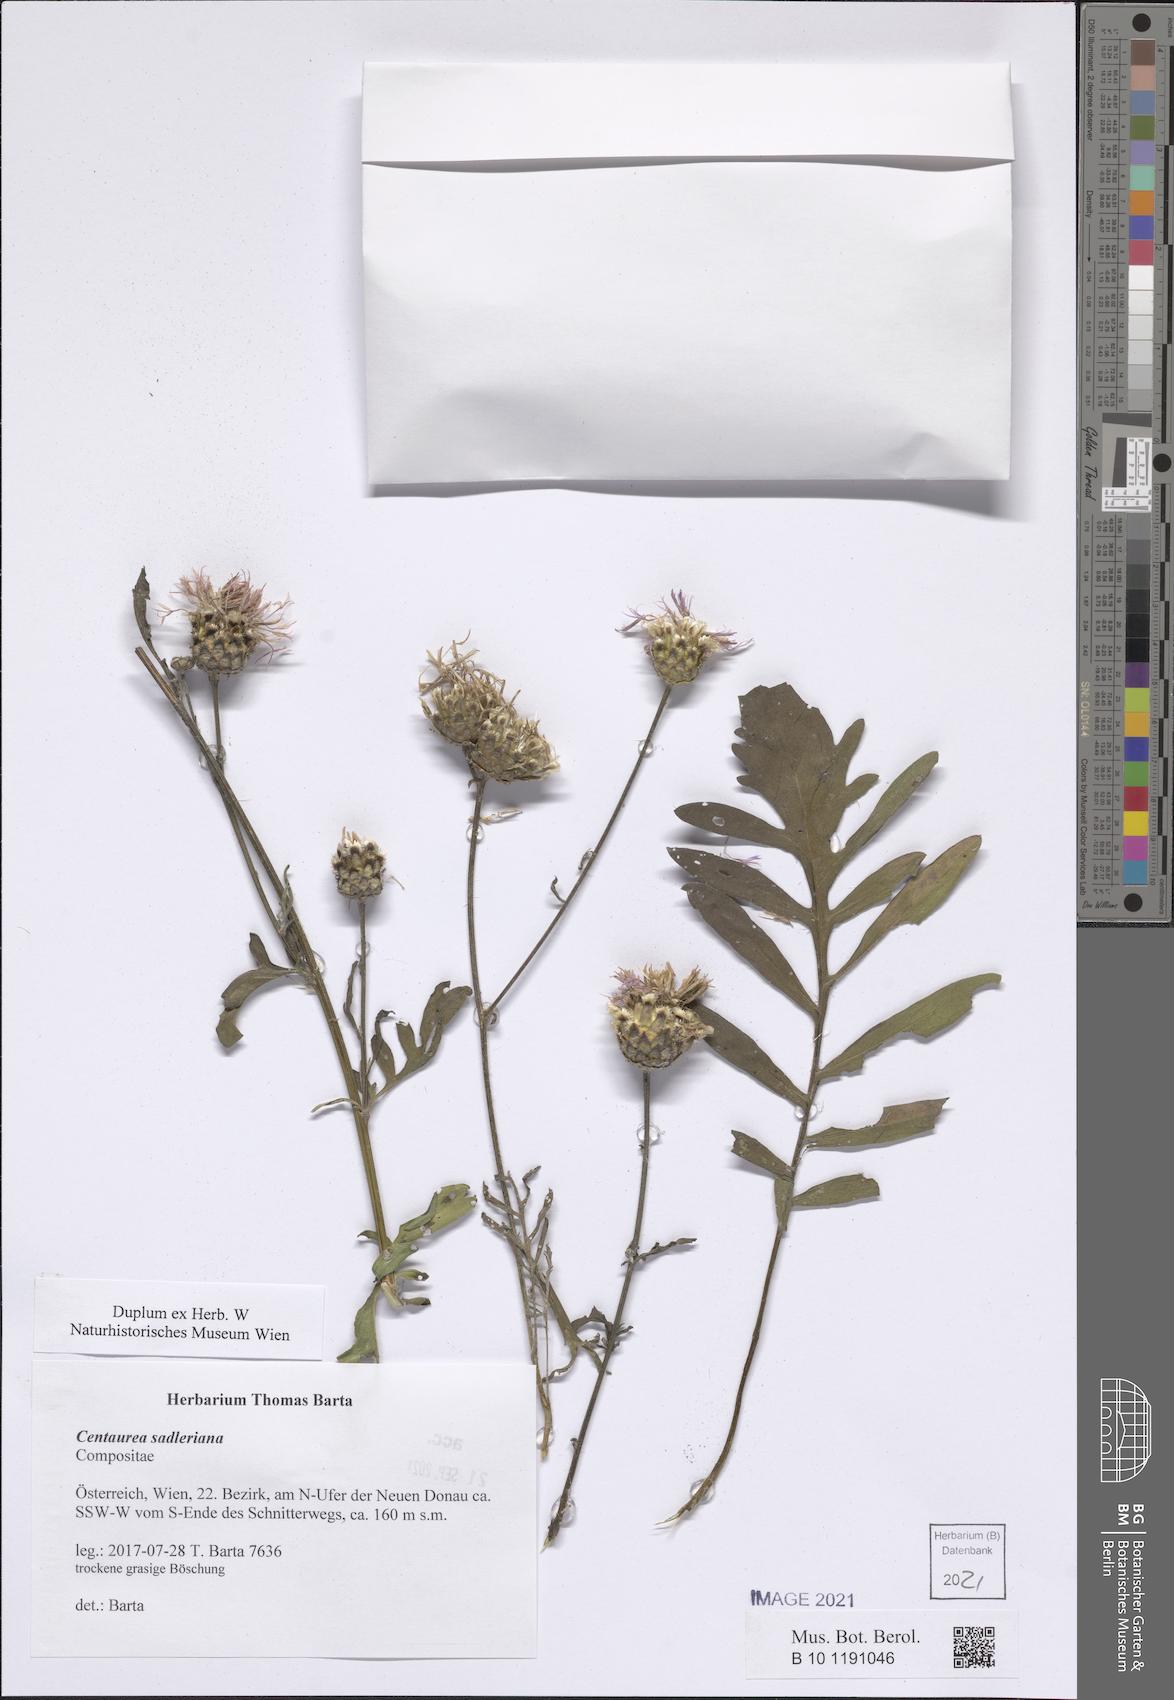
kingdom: Plantae
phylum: Tracheophyta
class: Magnoliopsida
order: Asterales
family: Asteraceae
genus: Centaurea
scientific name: Centaurea sadleriana
